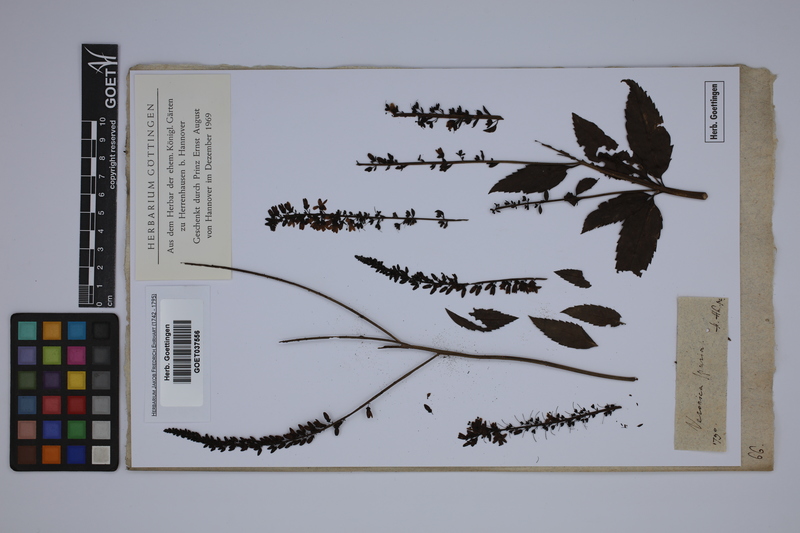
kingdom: Plantae
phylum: Tracheophyta
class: Magnoliopsida
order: Lamiales
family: Plantaginaceae
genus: Veronica
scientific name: Veronica spuria
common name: Bastard speedwell
